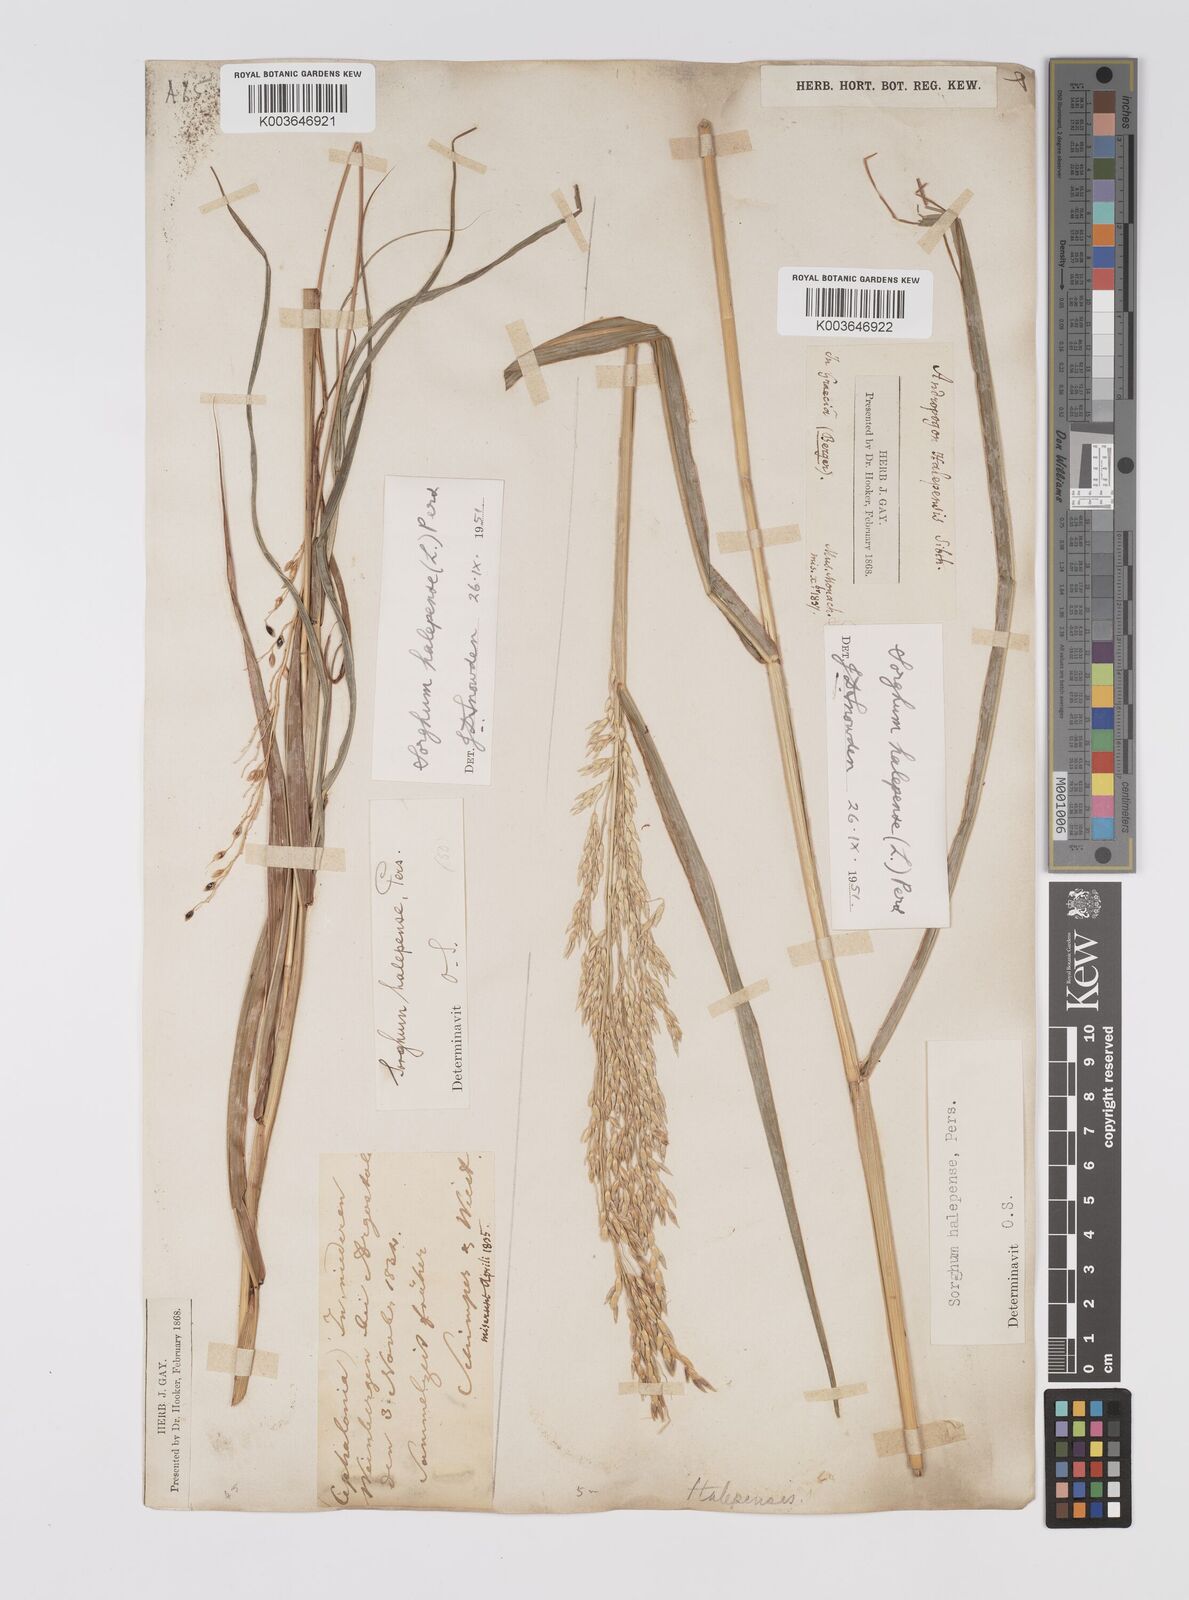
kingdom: Plantae
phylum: Tracheophyta
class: Liliopsida
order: Poales
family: Poaceae
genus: Sorghum
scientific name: Sorghum halepense
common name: Johnson-grass
